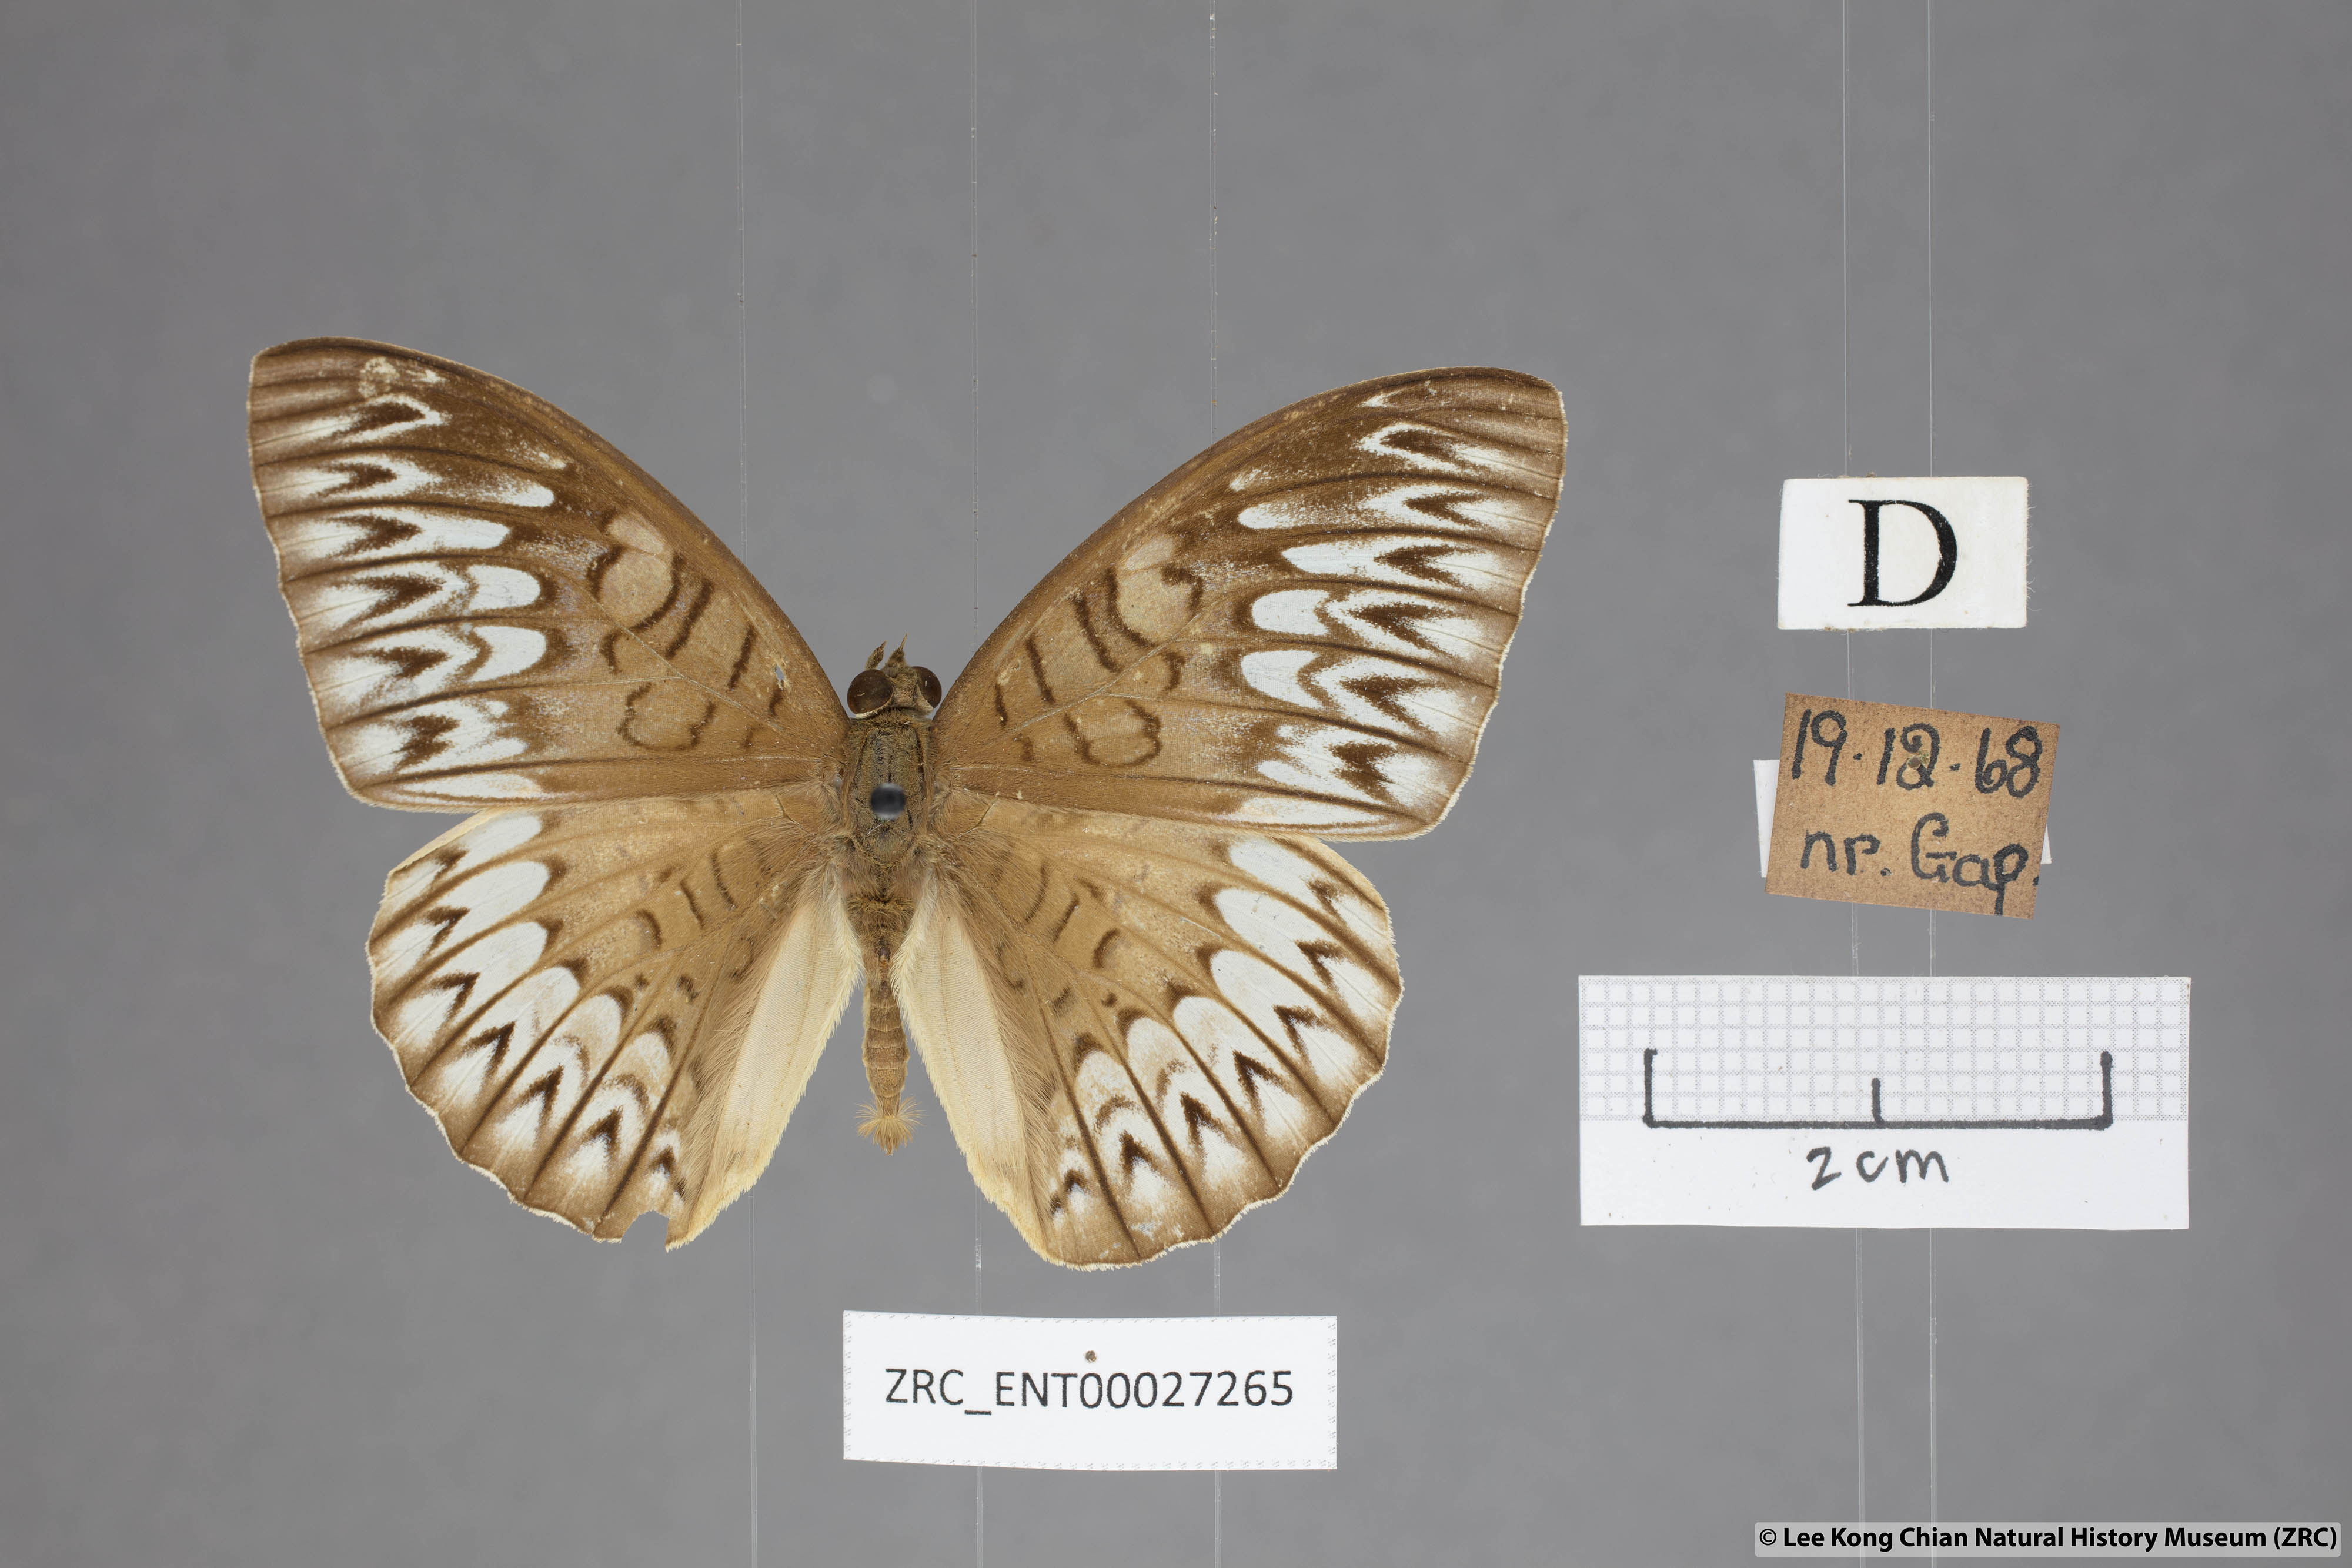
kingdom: Animalia
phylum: Arthropoda
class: Insecta
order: Lepidoptera
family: Nymphalidae
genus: Tanaecia
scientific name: Tanaecia aruna
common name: Short-banded viscount
